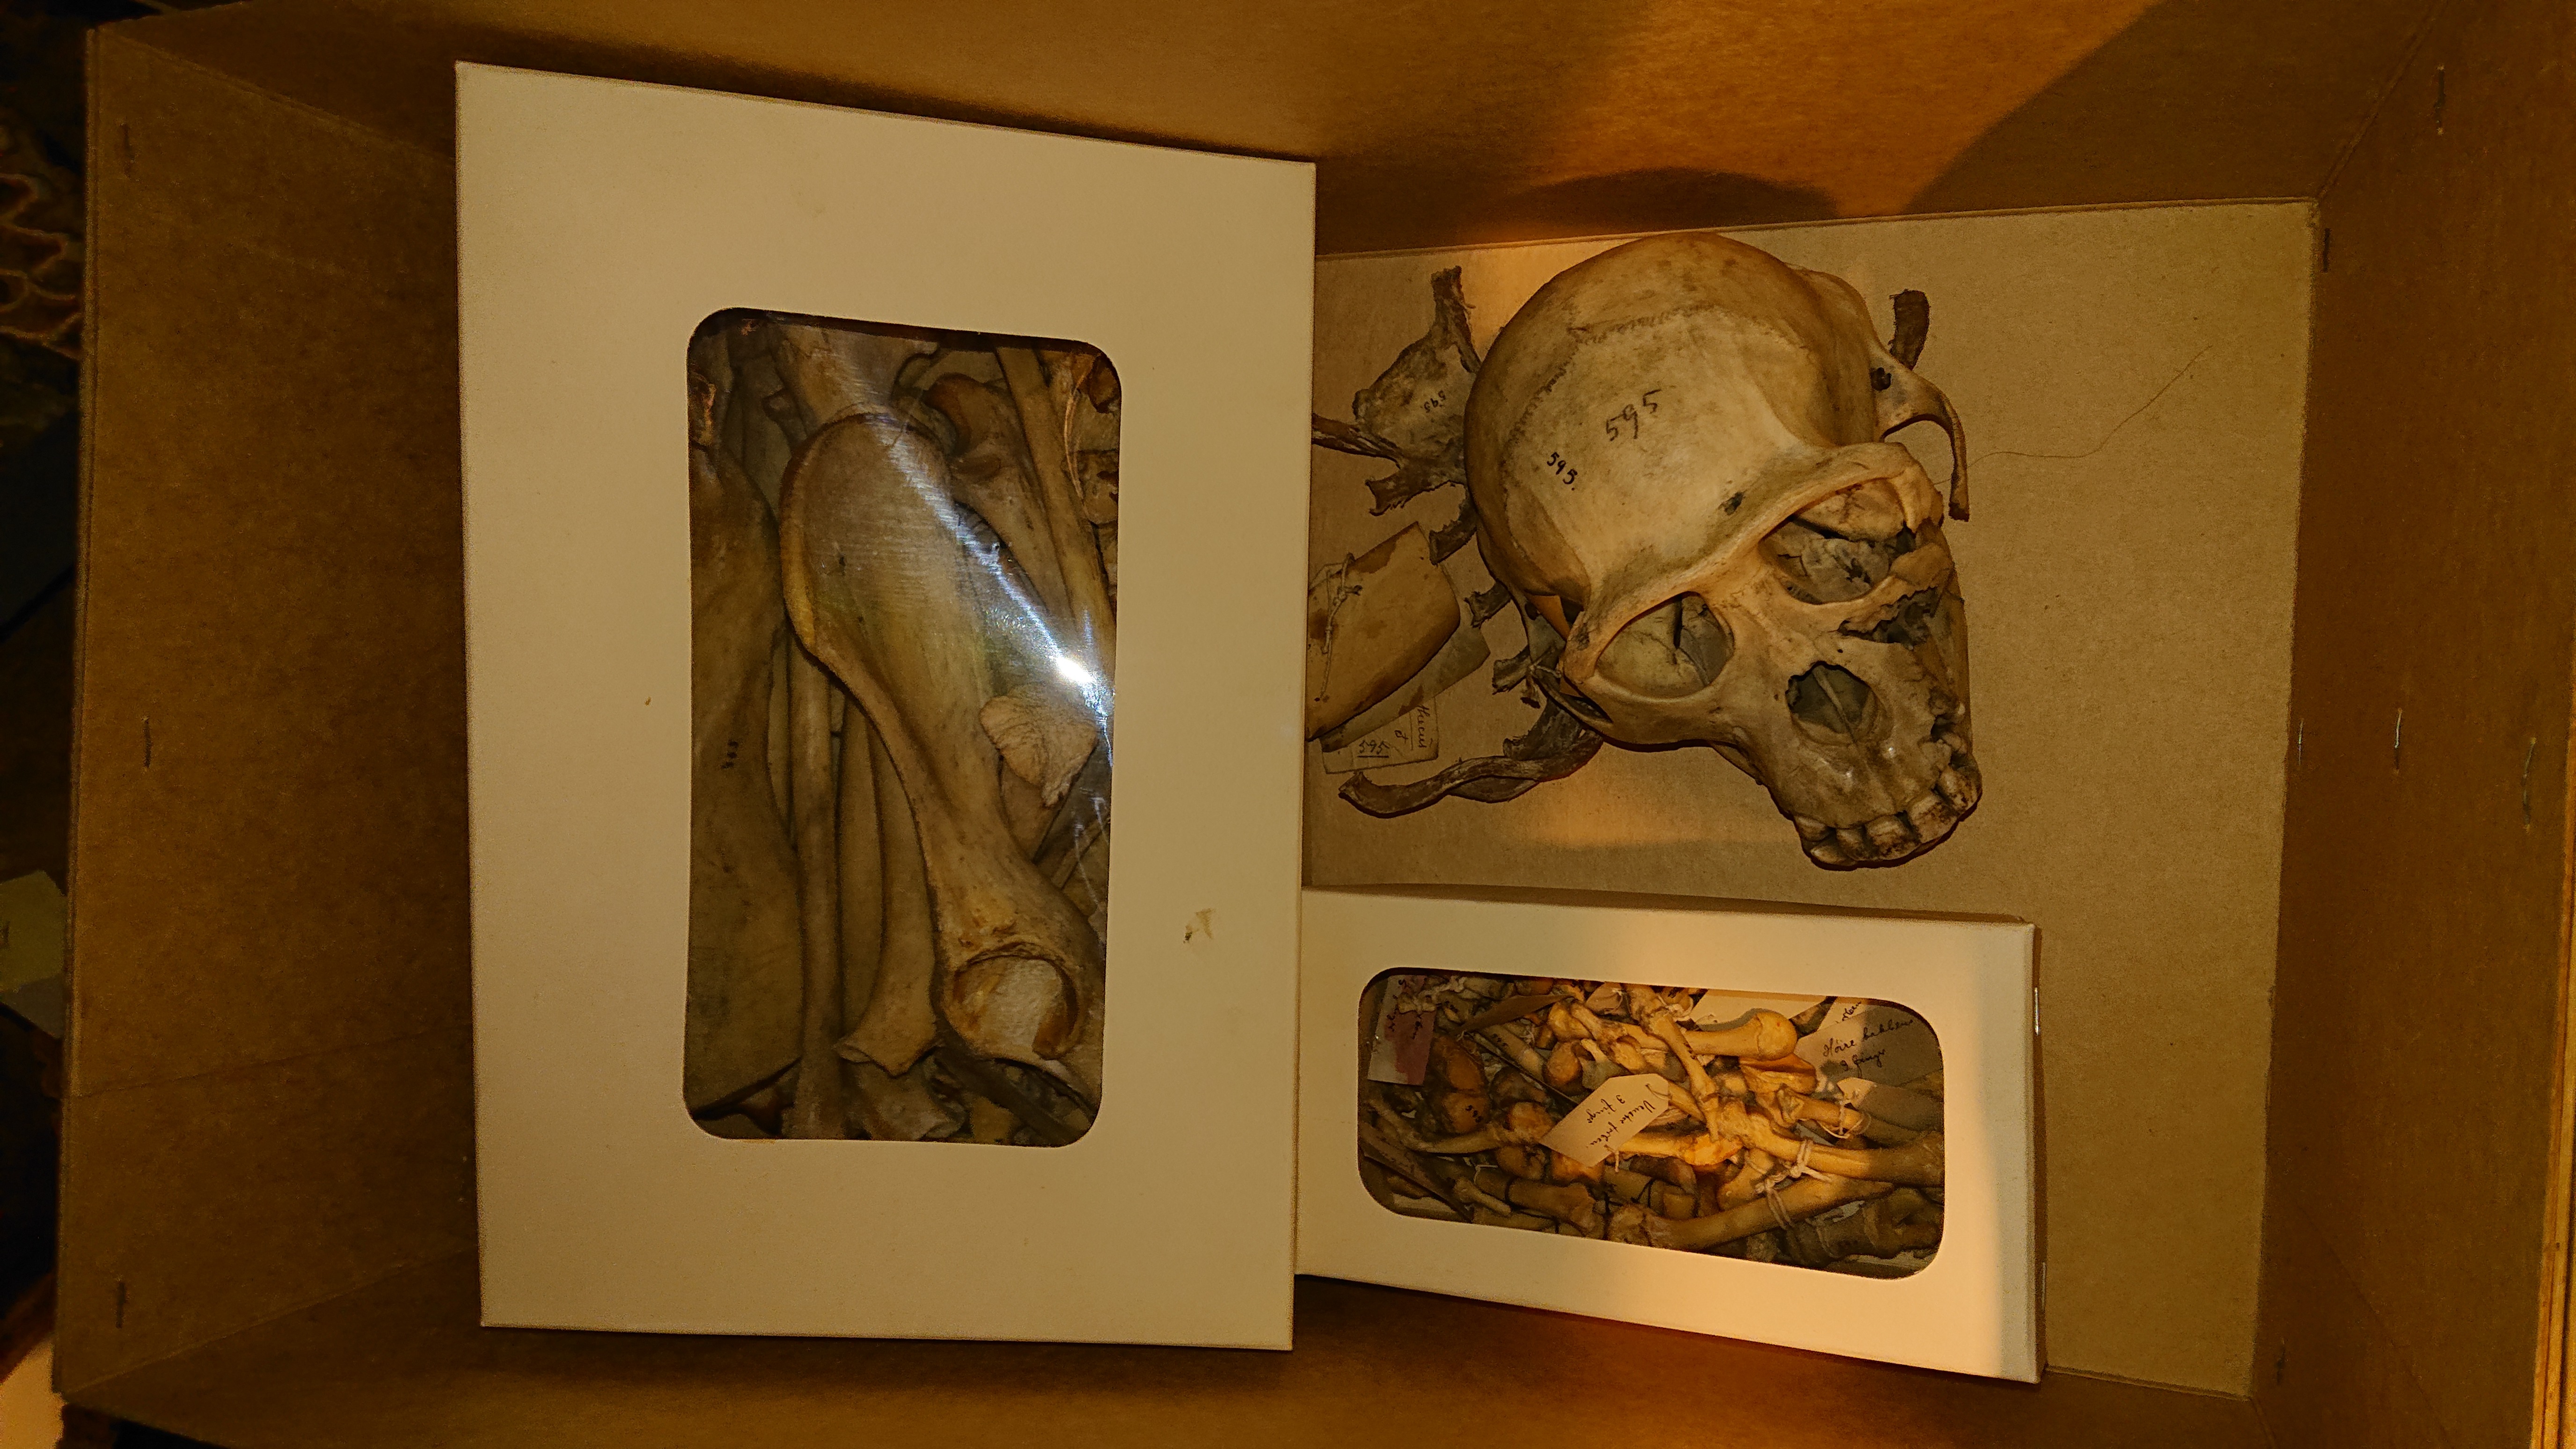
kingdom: Animalia
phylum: Chordata
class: Mammalia
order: Primates
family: Hominidae
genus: Pan
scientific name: Pan troglodytes
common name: Chimpanzee
